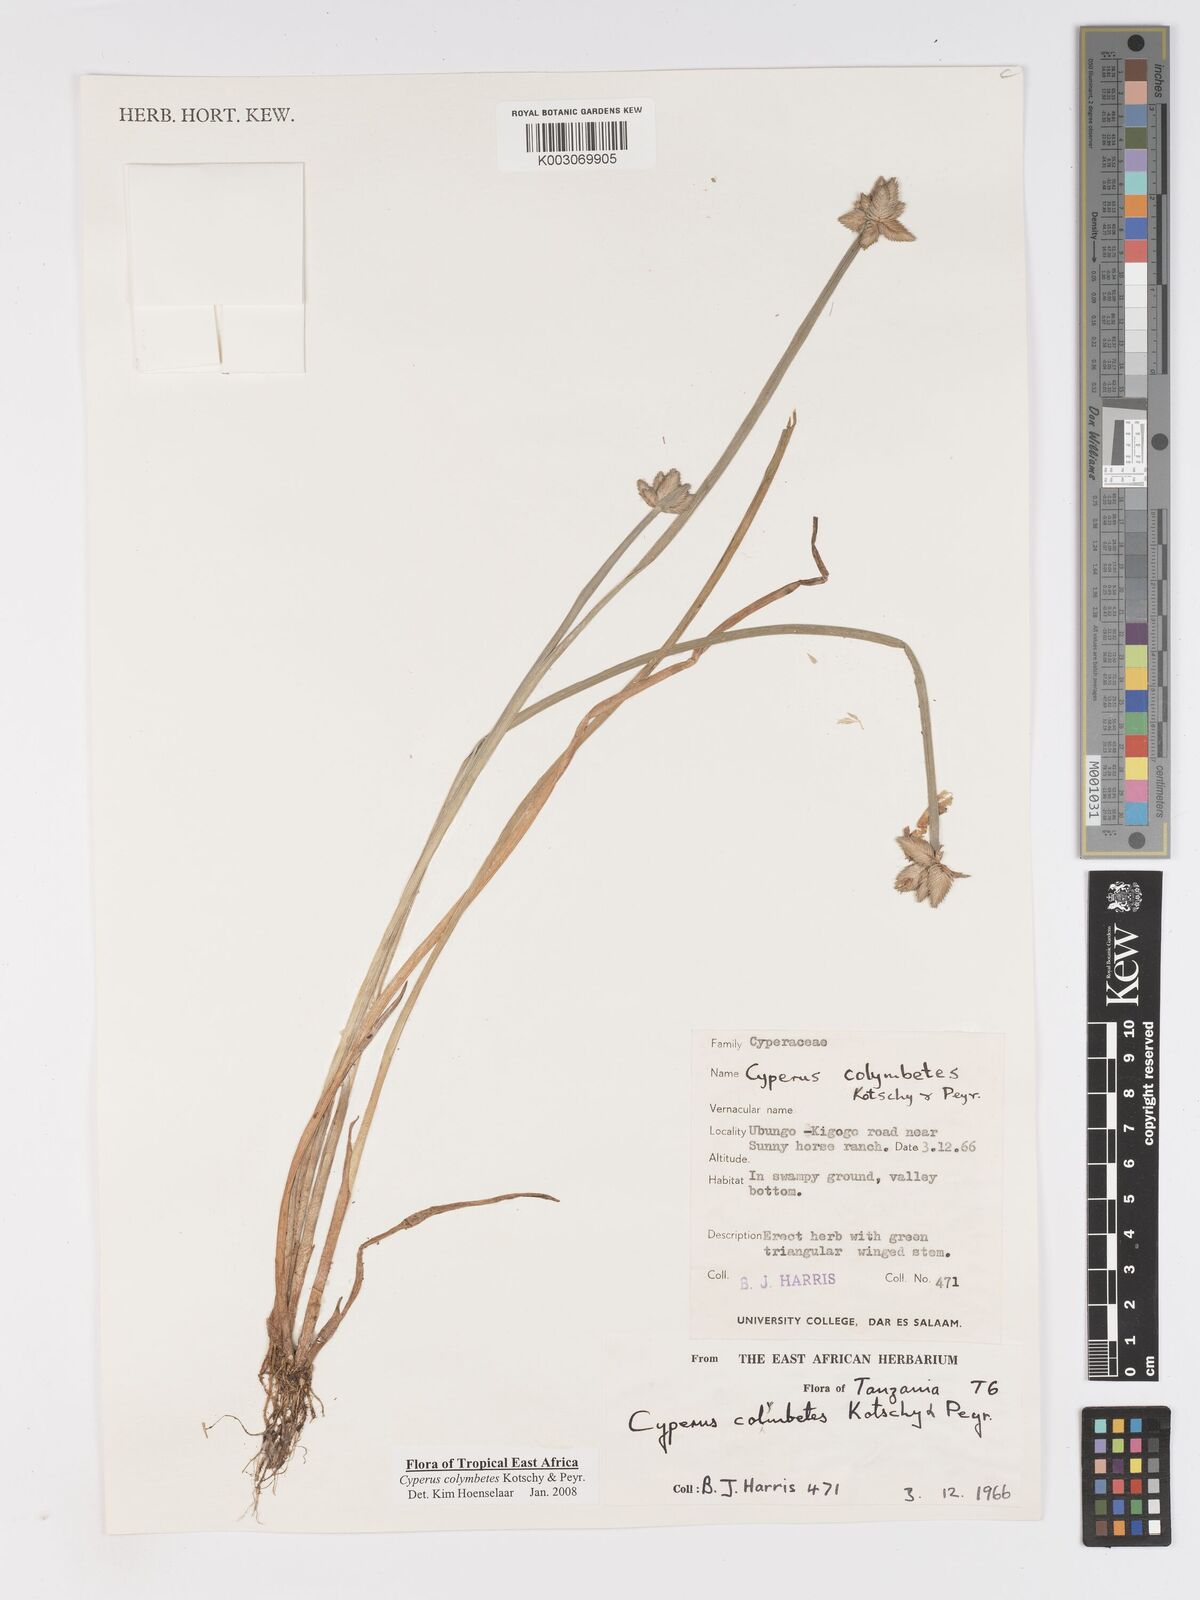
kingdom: Plantae
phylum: Tracheophyta
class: Liliopsida
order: Poales
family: Cyperaceae
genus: Cyperus
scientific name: Cyperus colymbetes
